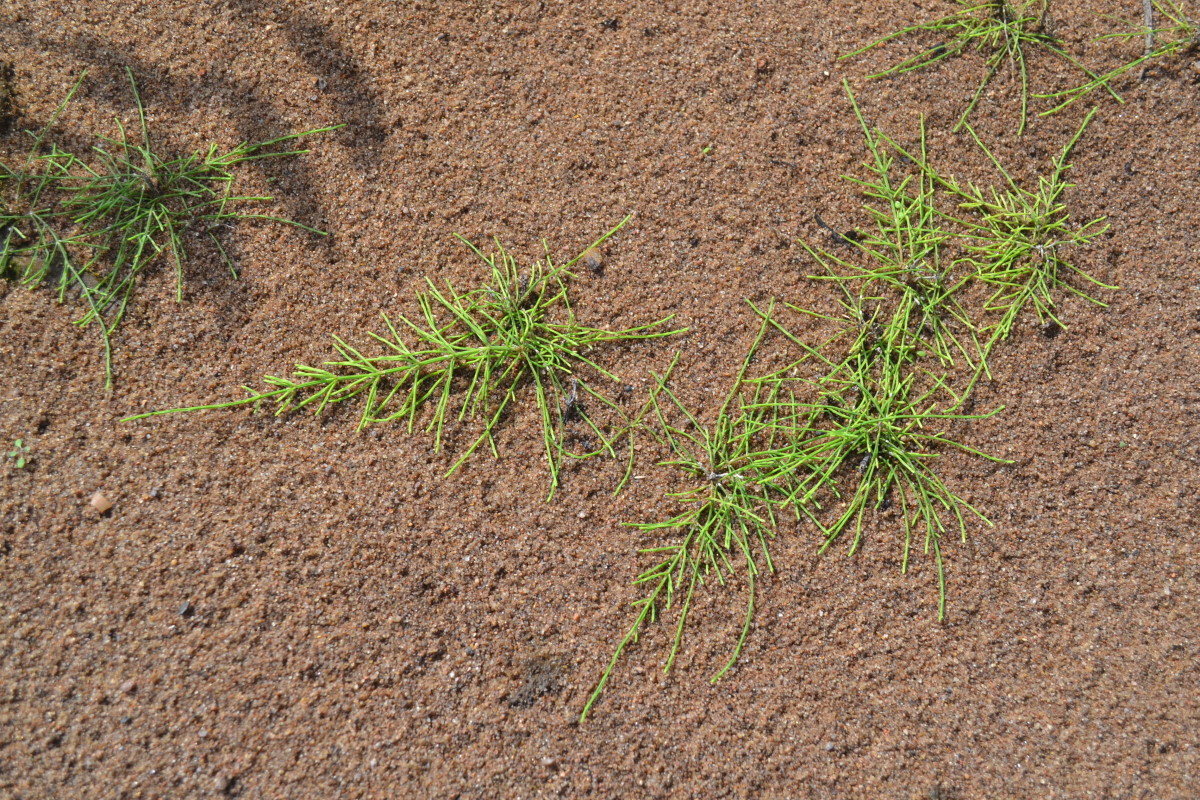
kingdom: Plantae
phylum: Tracheophyta
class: Polypodiopsida
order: Equisetales
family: Equisetaceae
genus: Equisetum
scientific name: Equisetum
